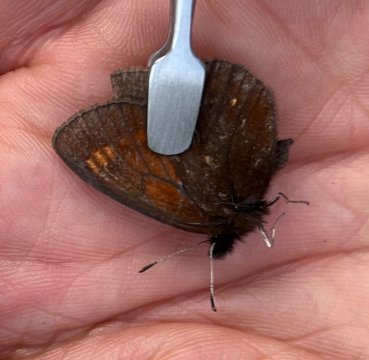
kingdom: Animalia
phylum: Arthropoda
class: Insecta
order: Lepidoptera
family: Nymphalidae
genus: Erebia
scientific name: Erebia pawloskii
